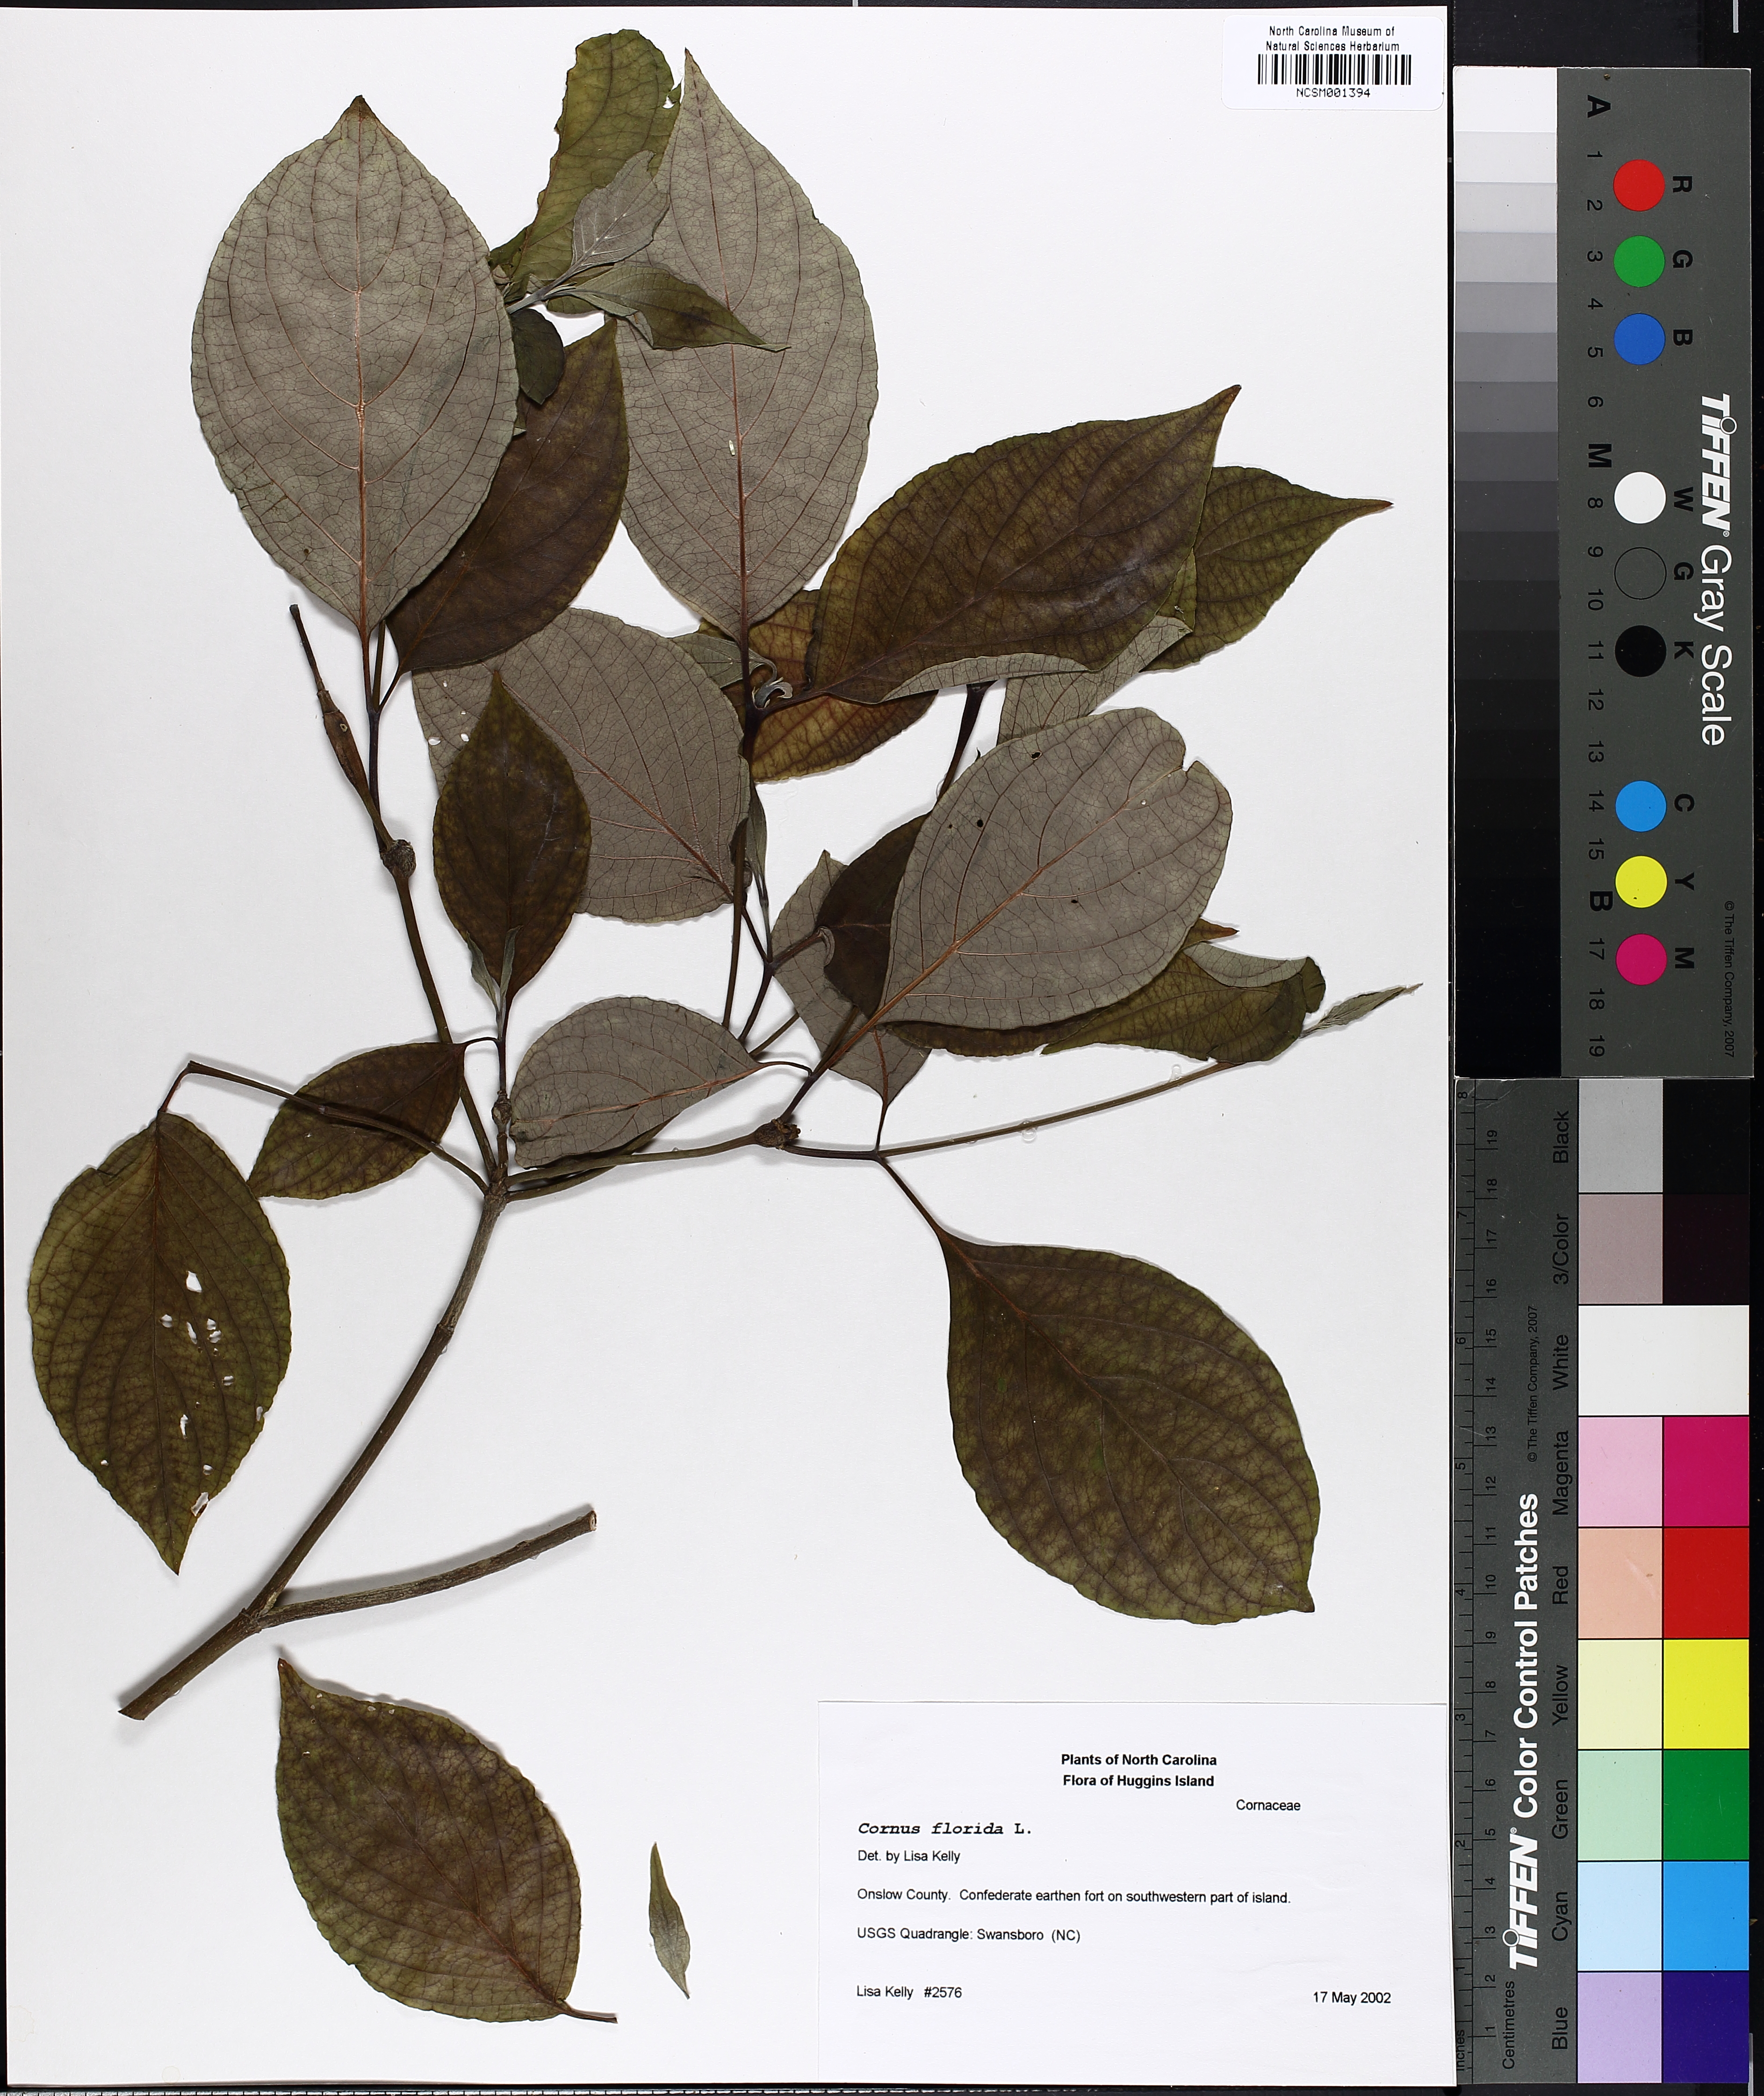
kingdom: Plantae
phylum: Tracheophyta
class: Magnoliopsida
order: Cornales
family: Cornaceae
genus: Cornus
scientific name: Cornus florida
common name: Flowering dogwood
